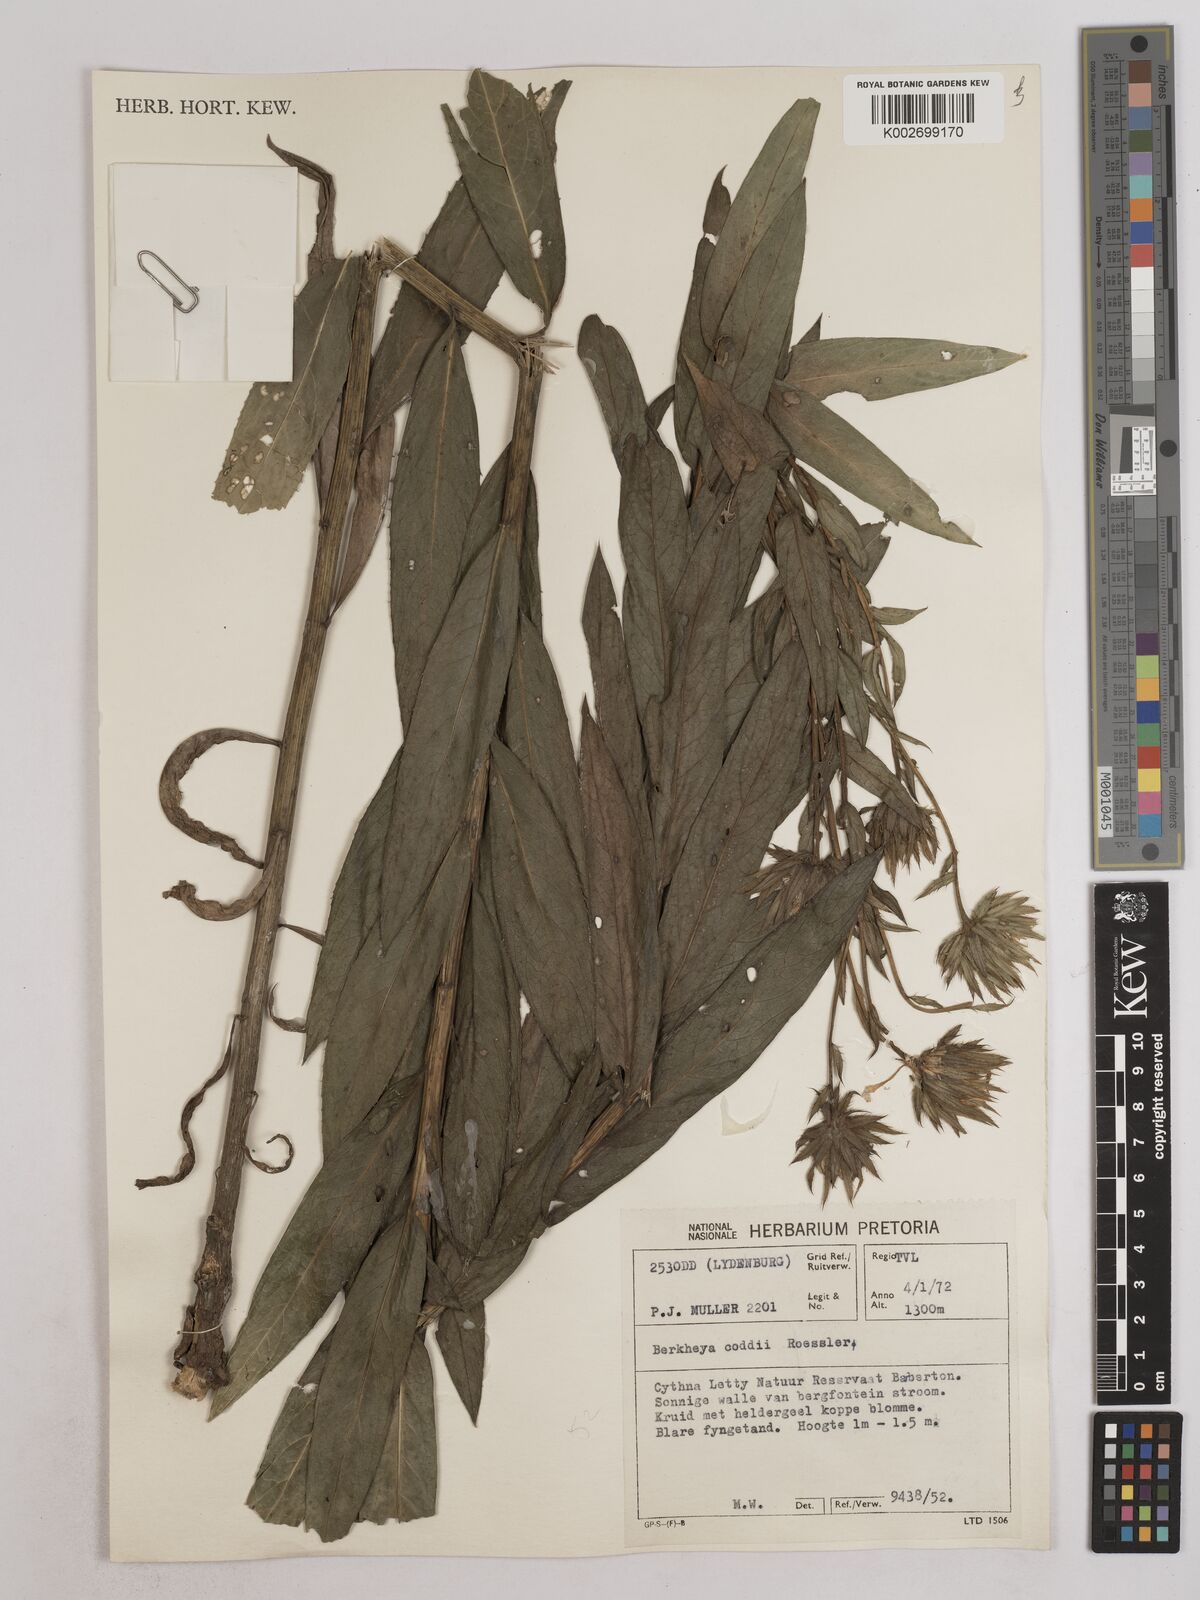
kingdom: Plantae
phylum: Tracheophyta
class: Magnoliopsida
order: Asterales
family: Asteraceae
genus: Berkheya
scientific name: Berkheya coddii
